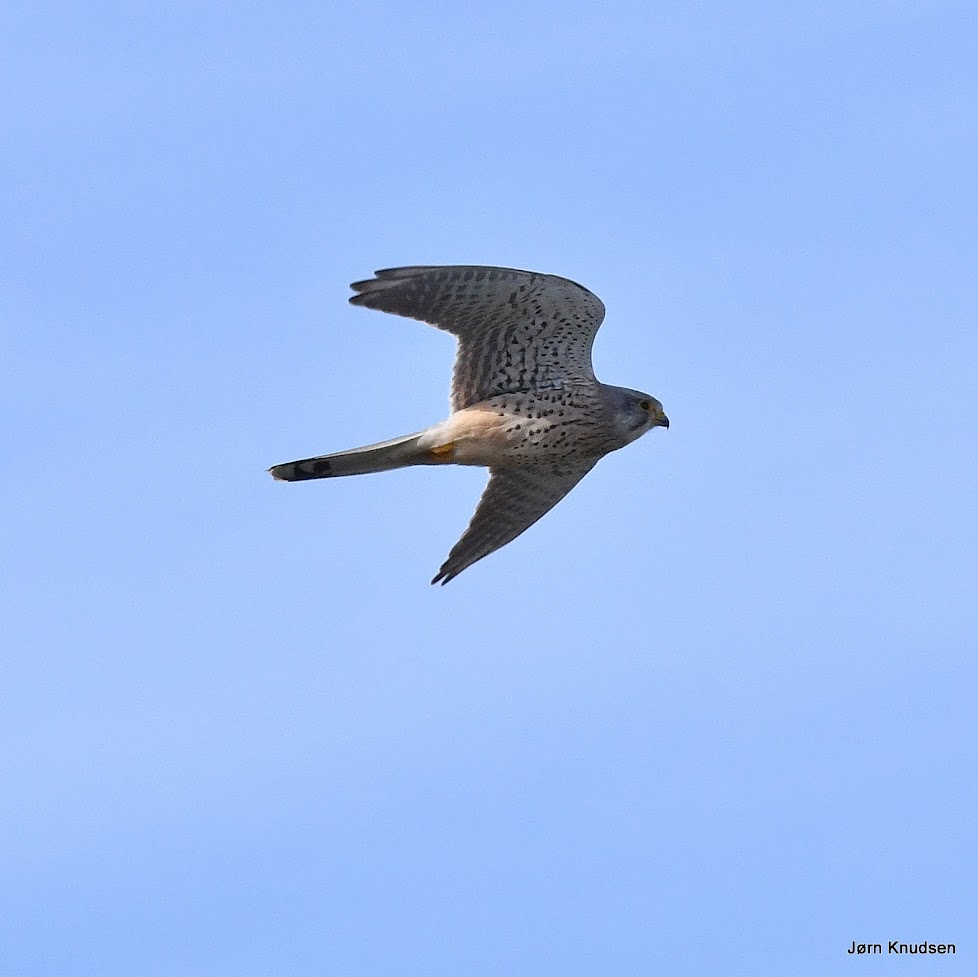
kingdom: Animalia
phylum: Chordata
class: Aves
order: Falconiformes
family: Falconidae
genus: Falco
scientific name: Falco tinnunculus
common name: Tårnfalk
